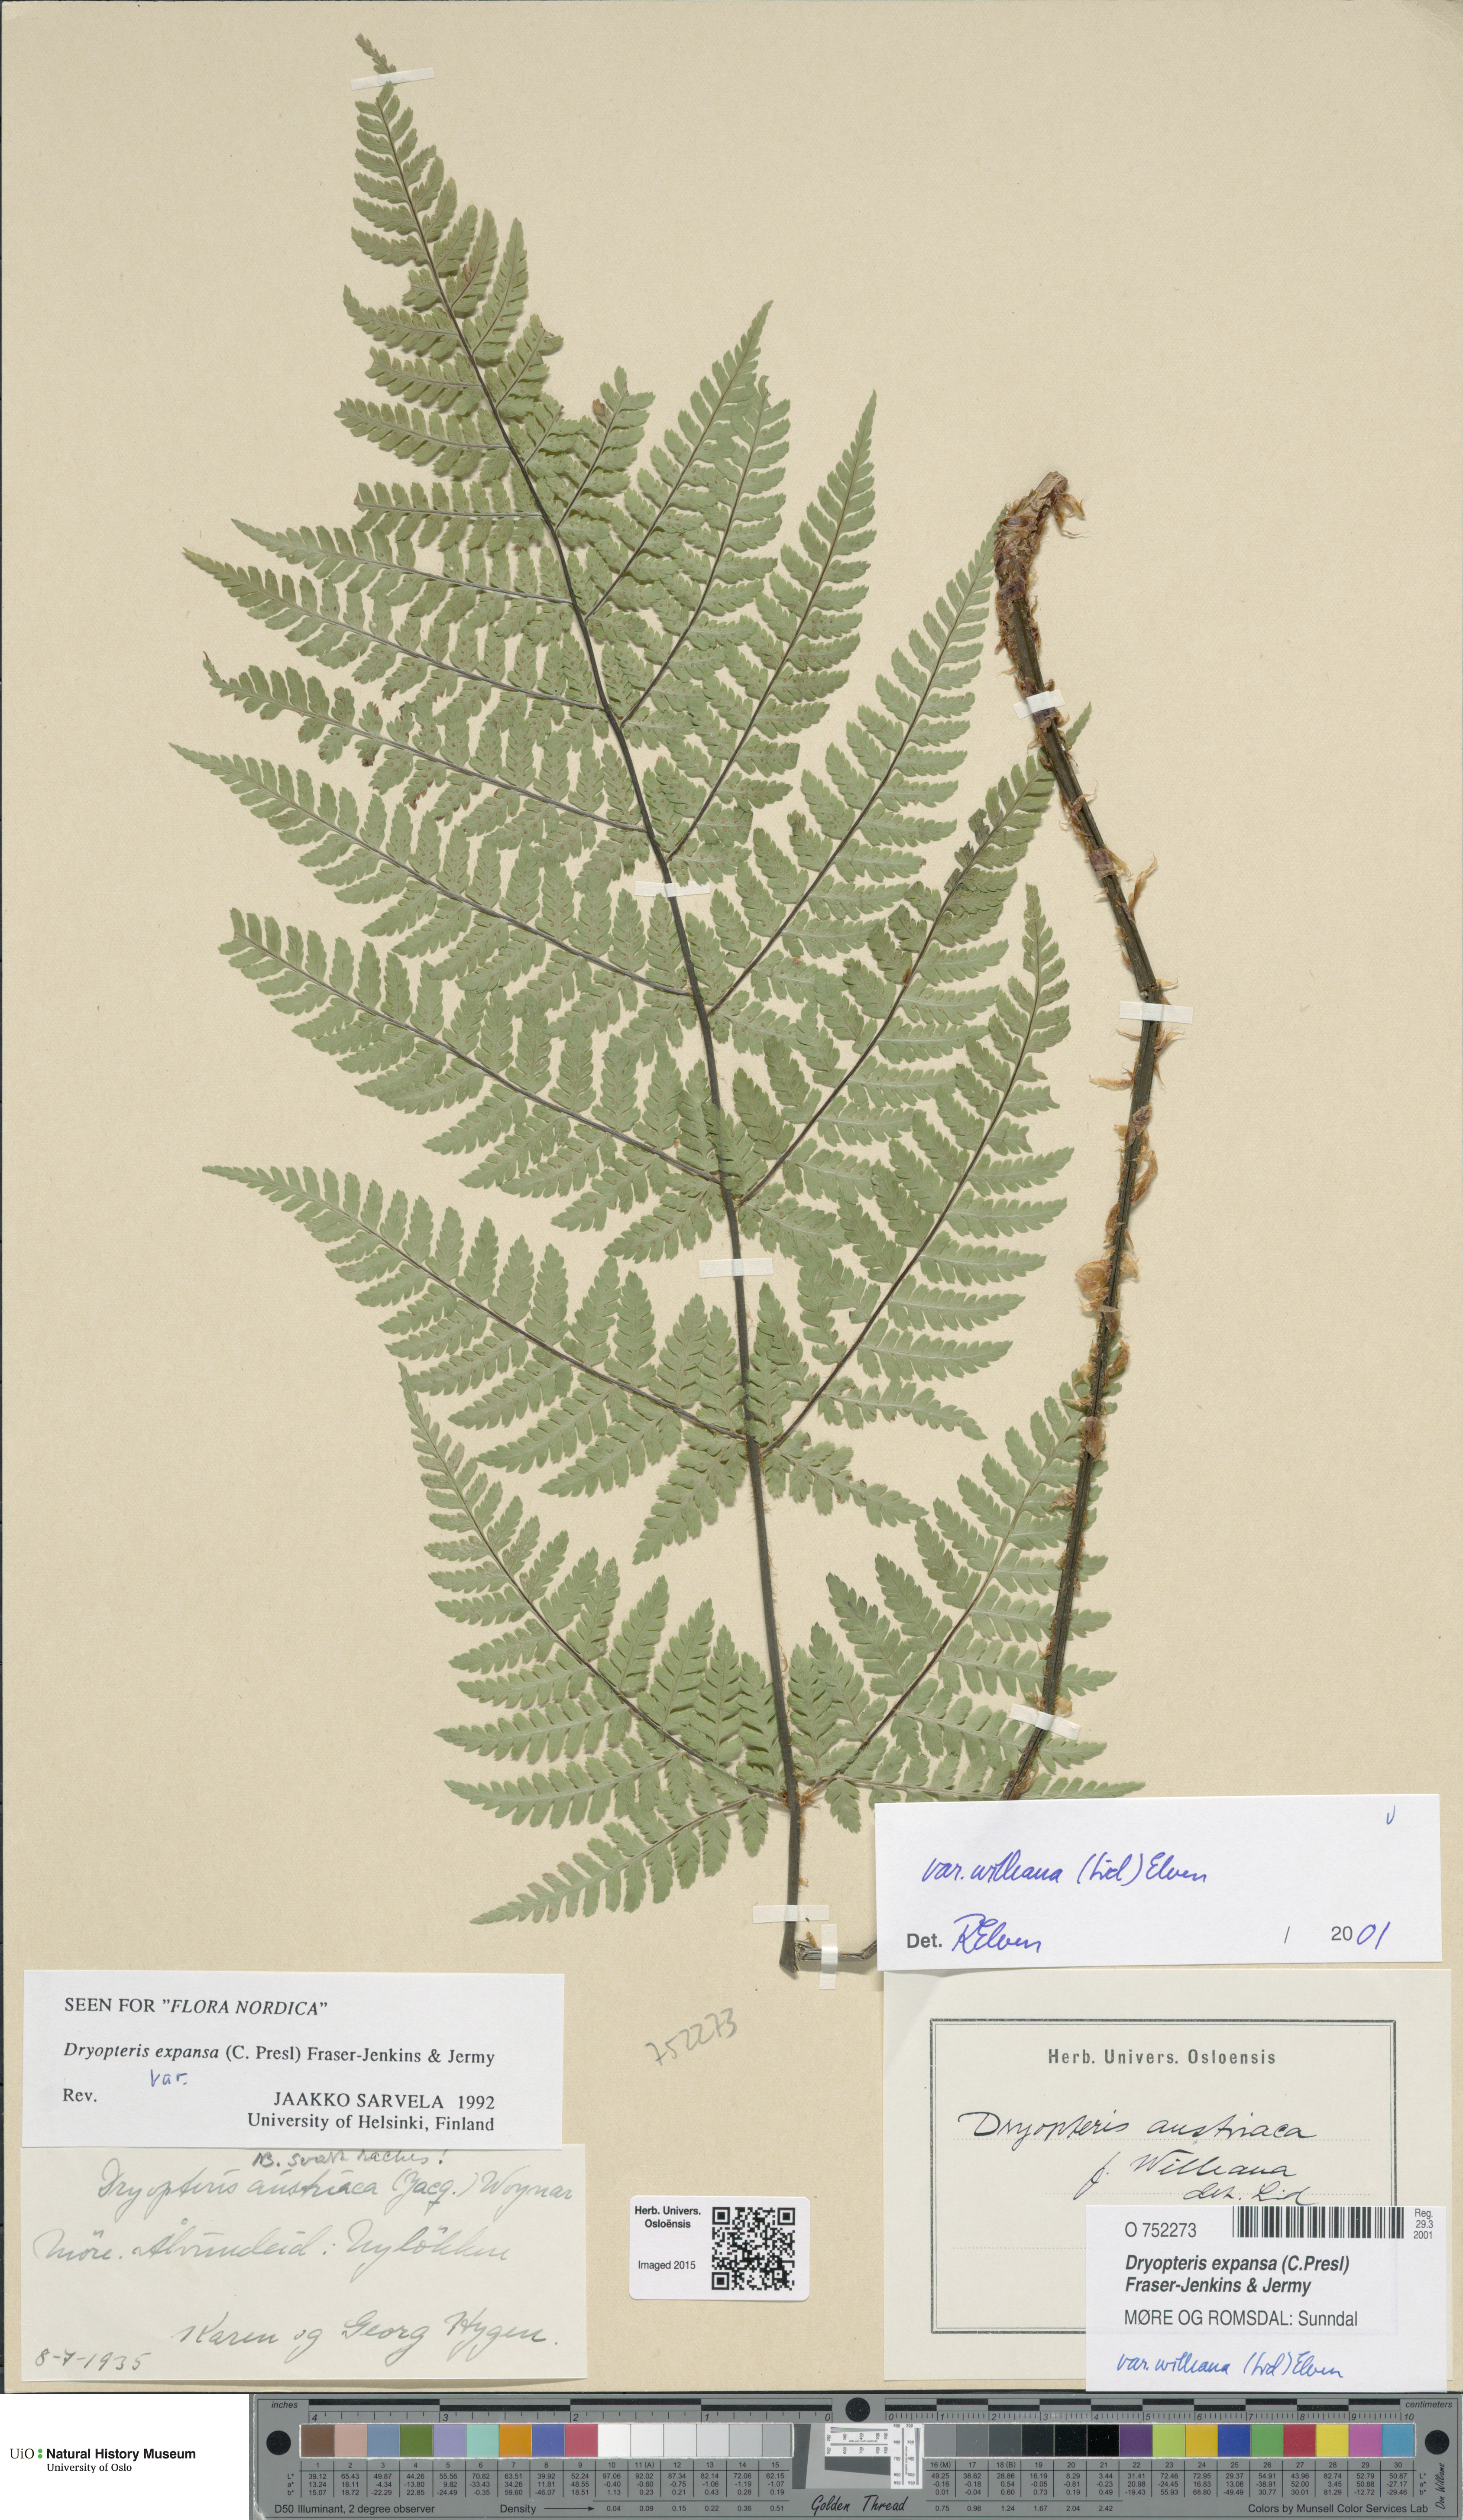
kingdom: Plantae
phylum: Tracheophyta
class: Polypodiopsida
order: Polypodiales
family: Dryopteridaceae
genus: Dryopteris
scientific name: Dryopteris expansa
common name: Northern buckler fern
